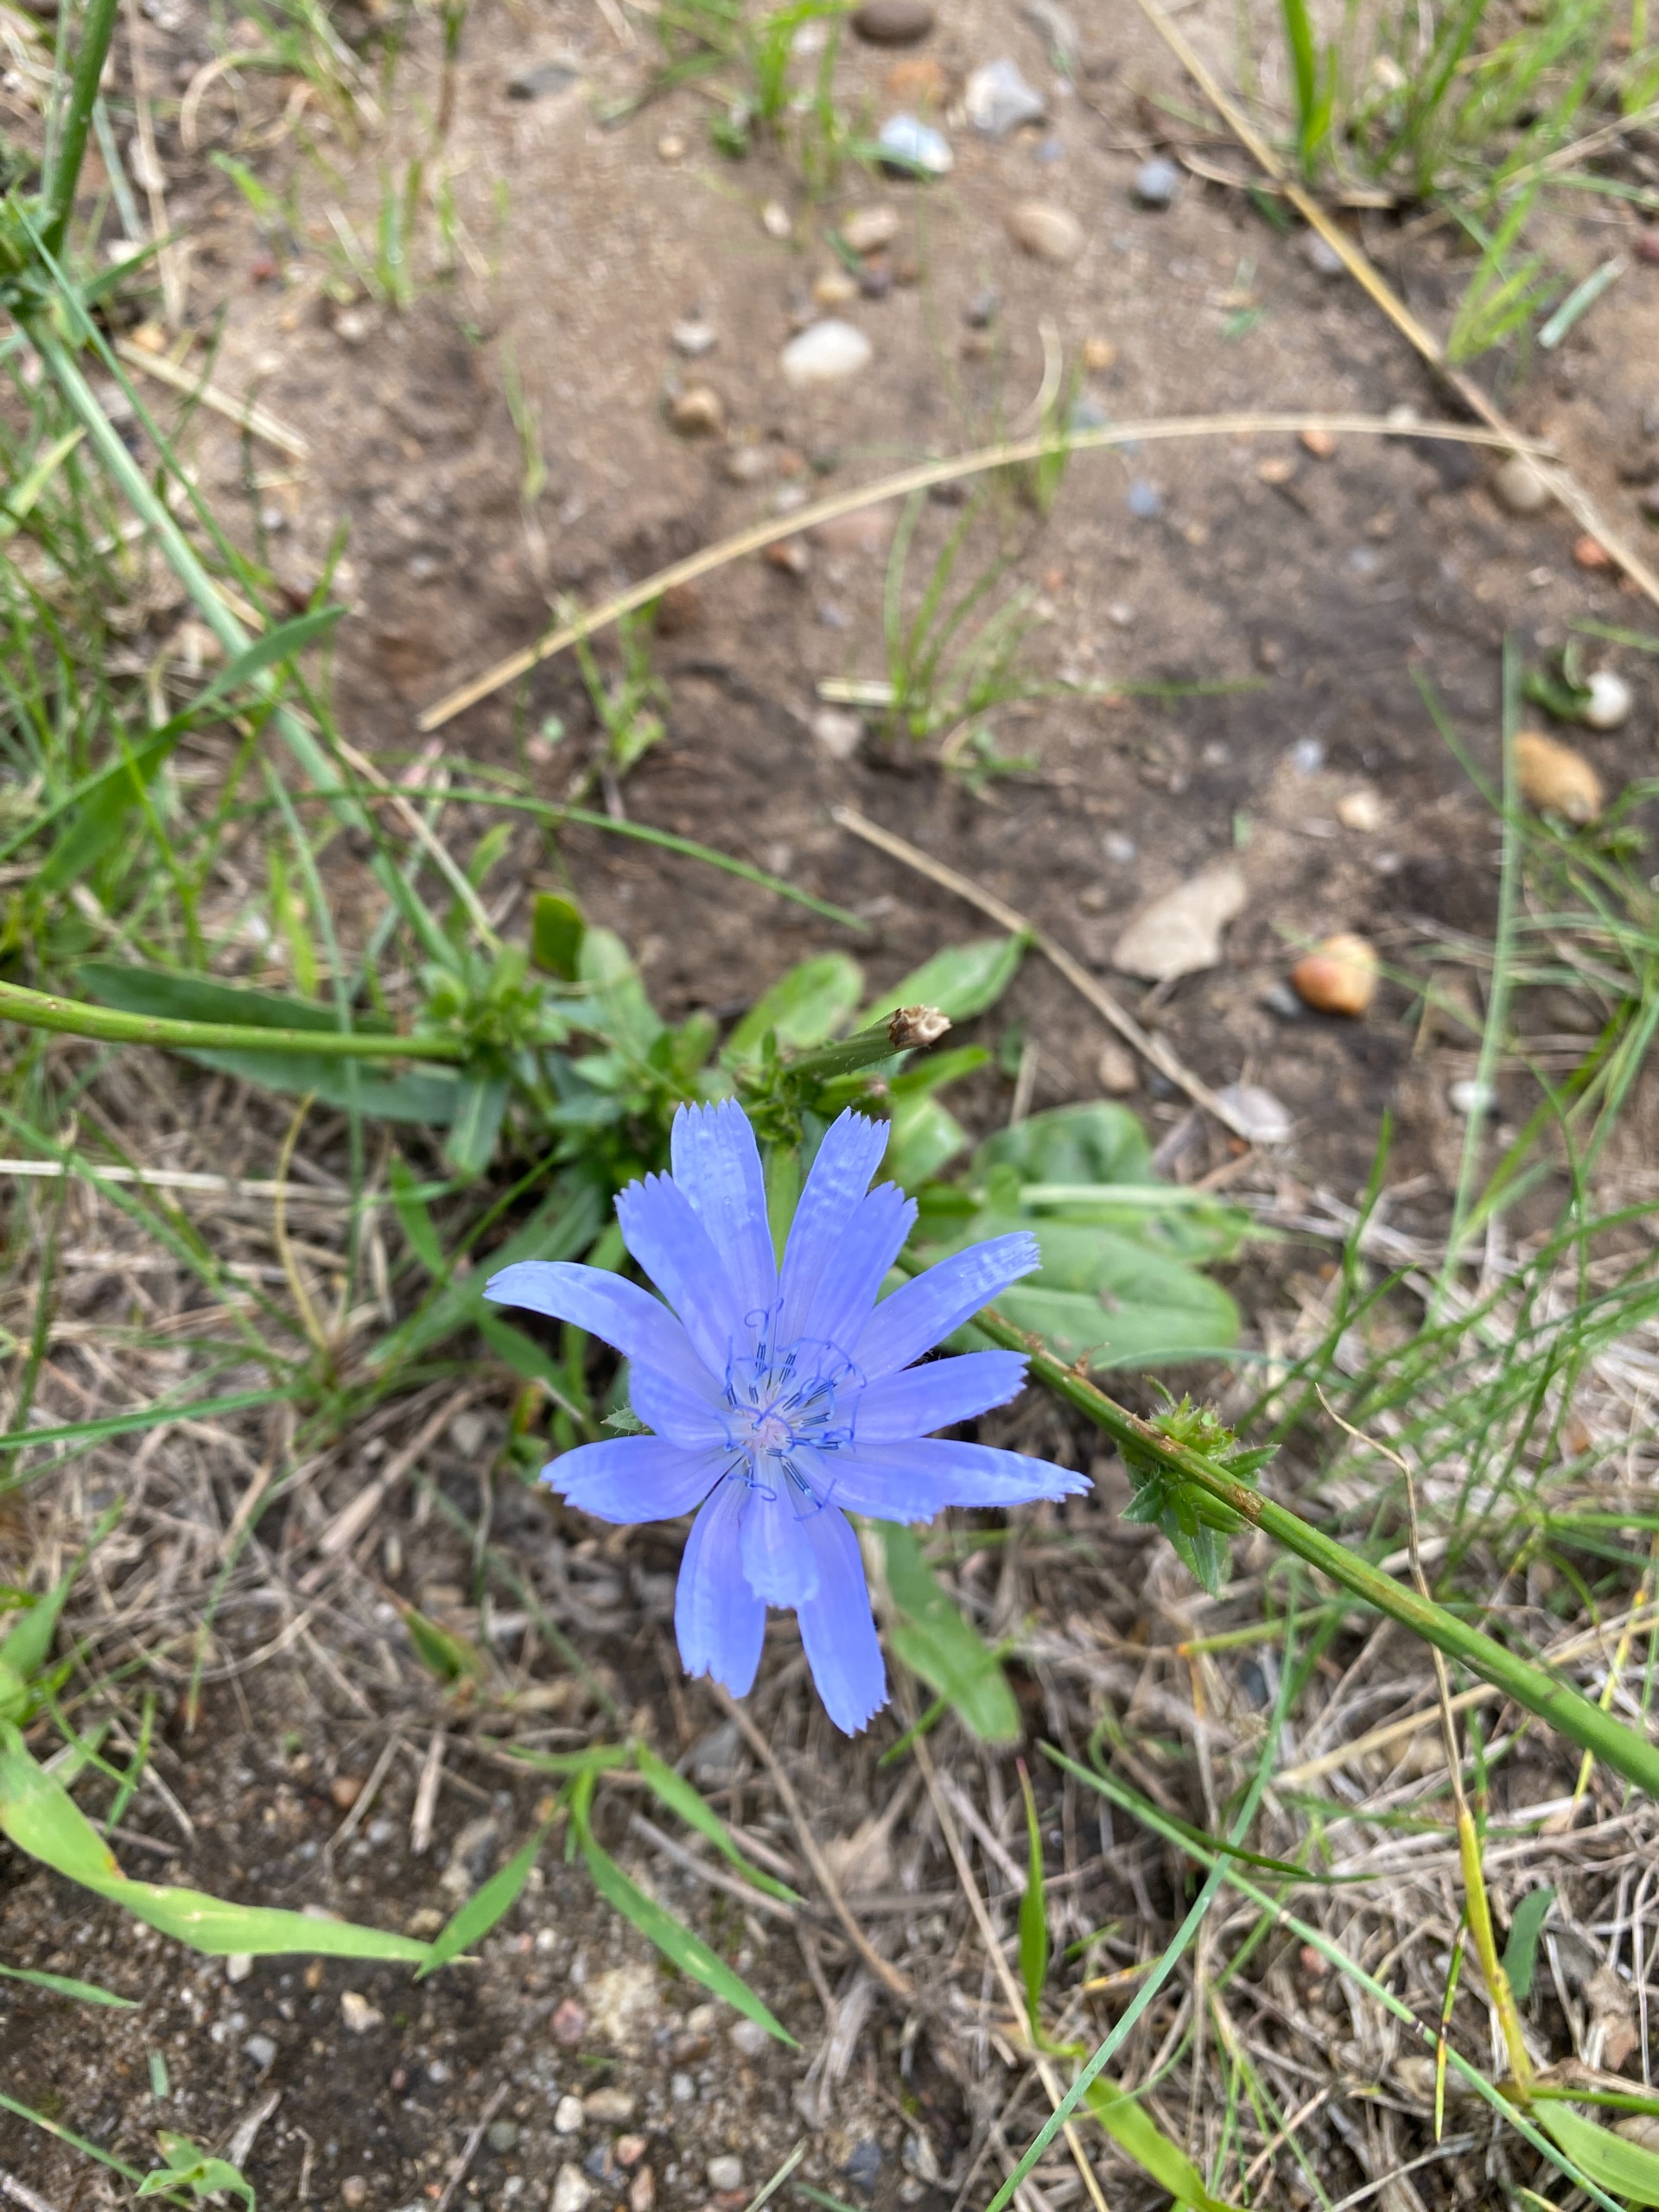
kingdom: Plantae
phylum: Tracheophyta
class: Magnoliopsida
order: Asterales
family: Asteraceae
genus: Cichorium
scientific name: Cichorium intybus
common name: Cikorie
